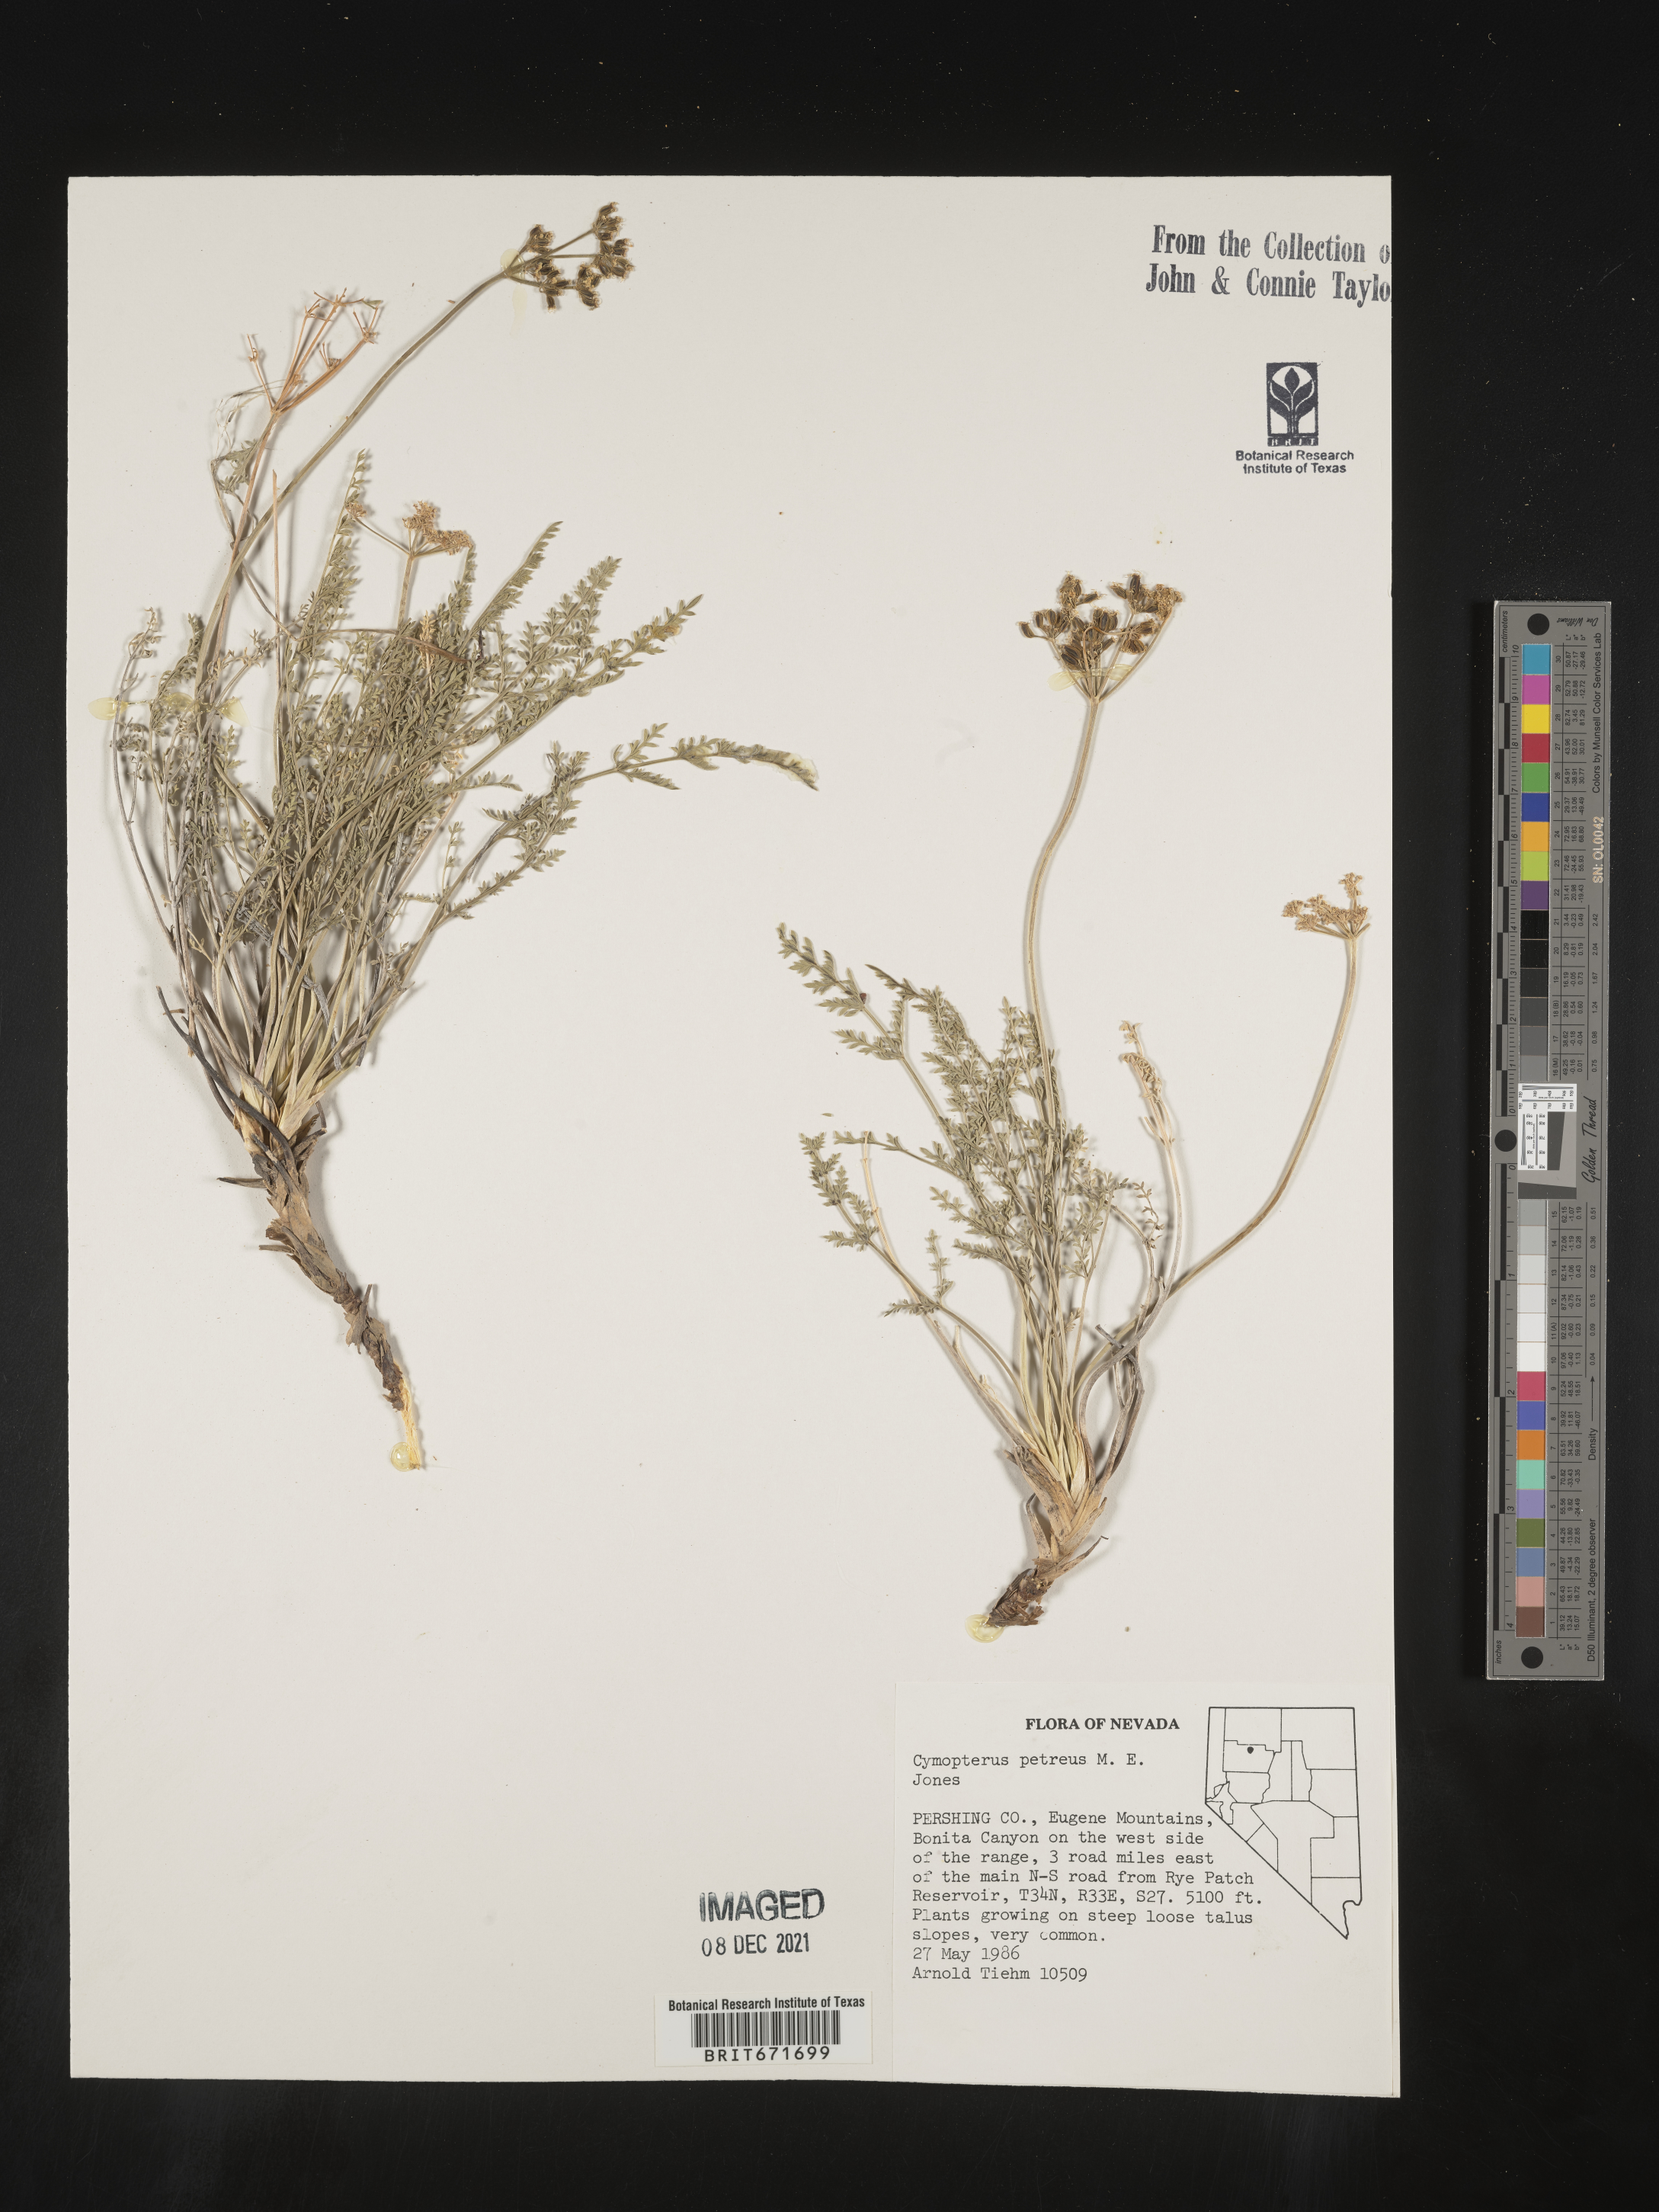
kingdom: Plantae
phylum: Tracheophyta
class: Magnoliopsida
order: Apiales
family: Apiaceae
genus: Pteryxia
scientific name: Pteryxia petraea
